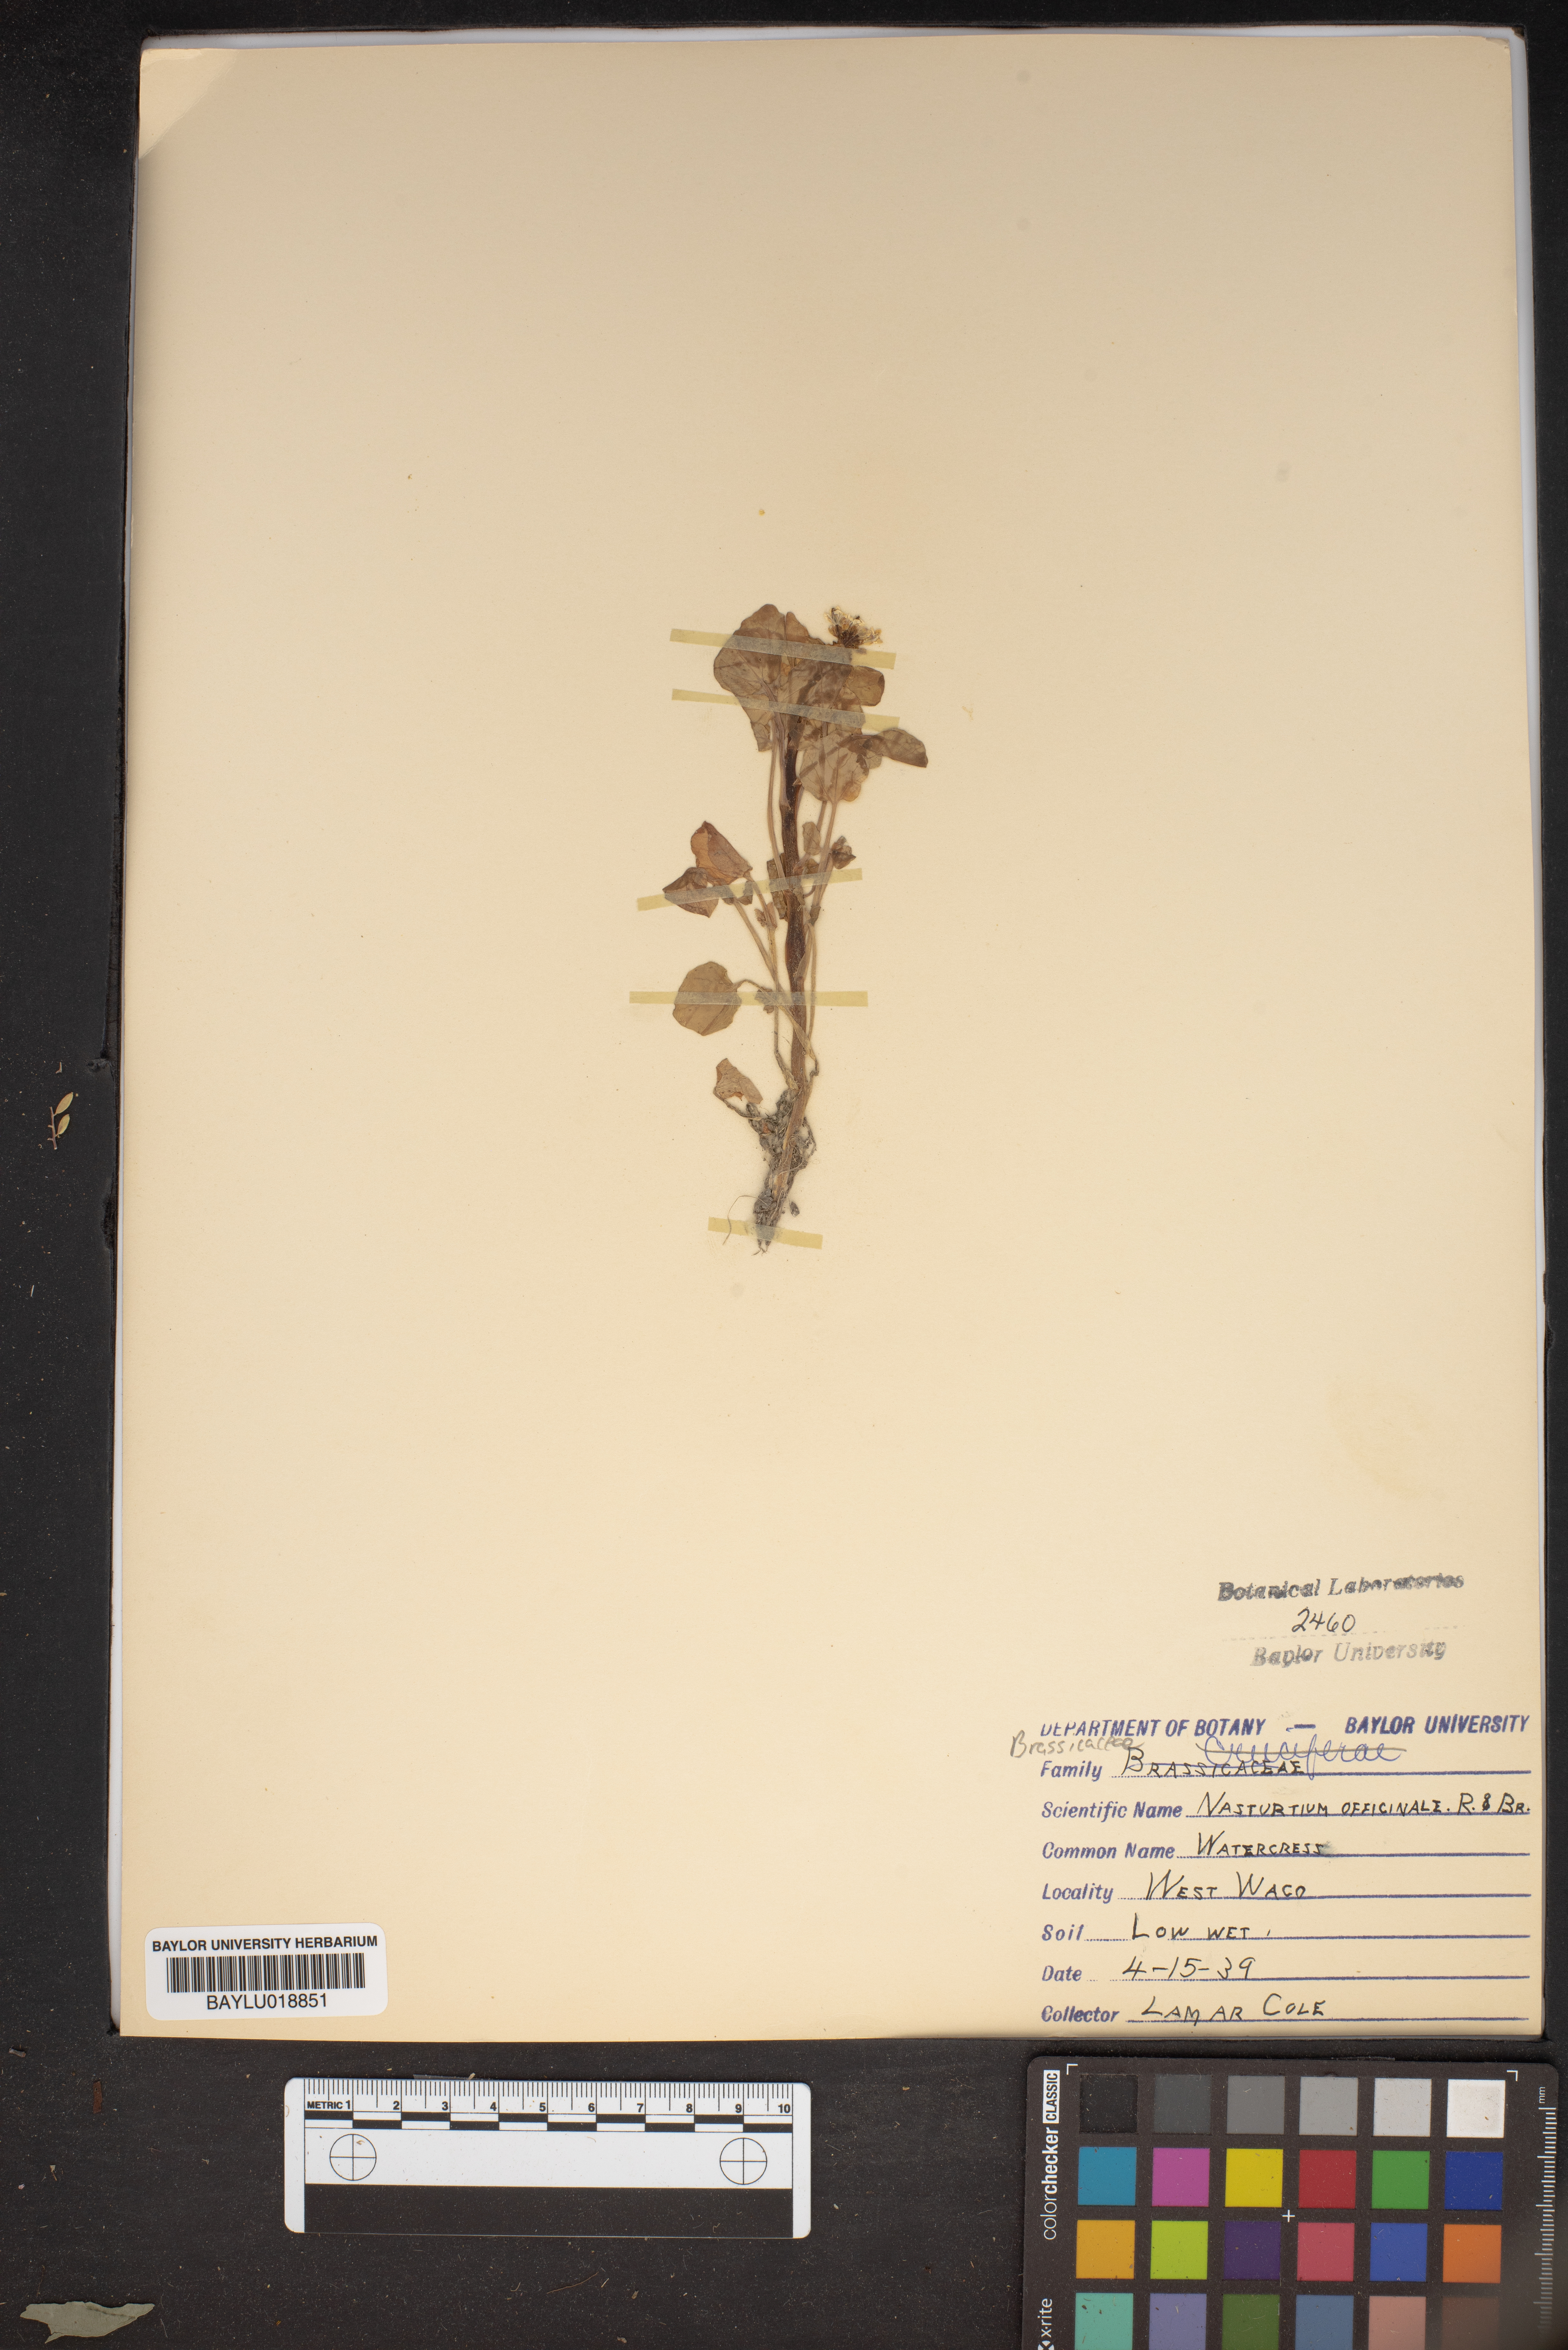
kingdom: Plantae
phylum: Tracheophyta
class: Magnoliopsida
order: Brassicales
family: Brassicaceae
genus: Nasturtium
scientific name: Nasturtium officinale
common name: Watercress
